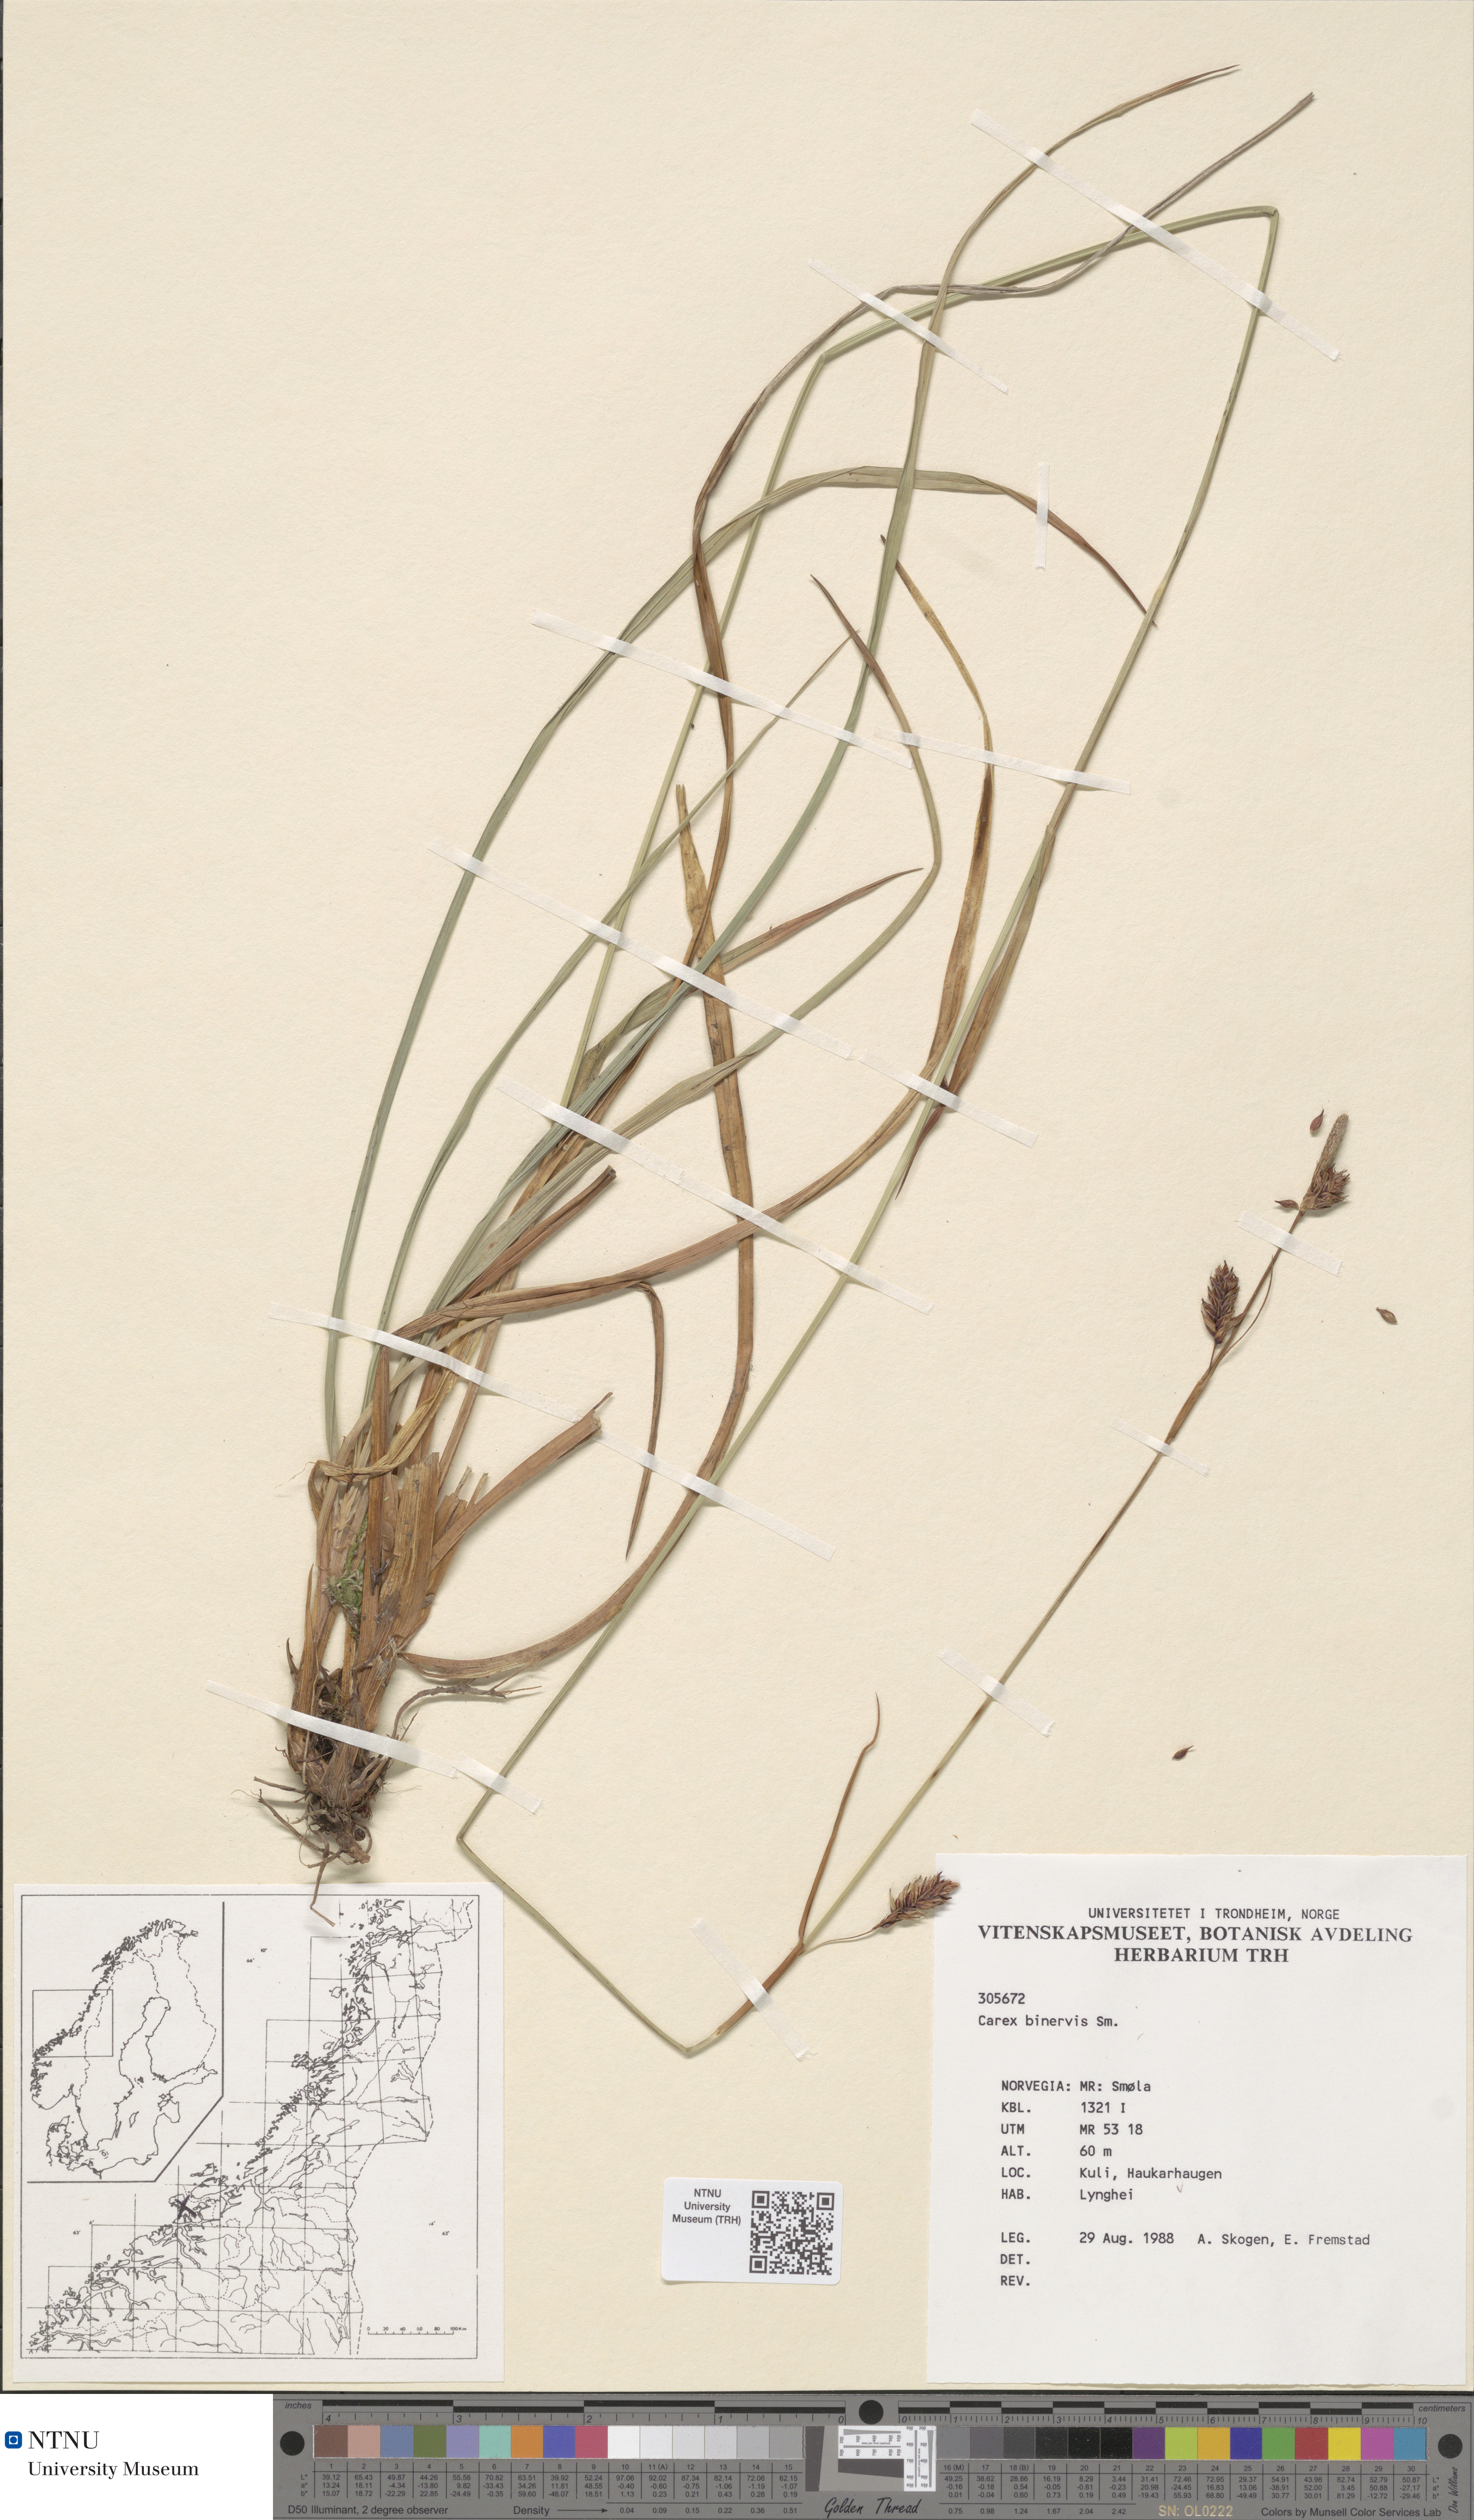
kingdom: Plantae
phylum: Tracheophyta
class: Liliopsida
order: Poales
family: Cyperaceae
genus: Carex
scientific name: Carex binervis
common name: Green-ribbed sedge
